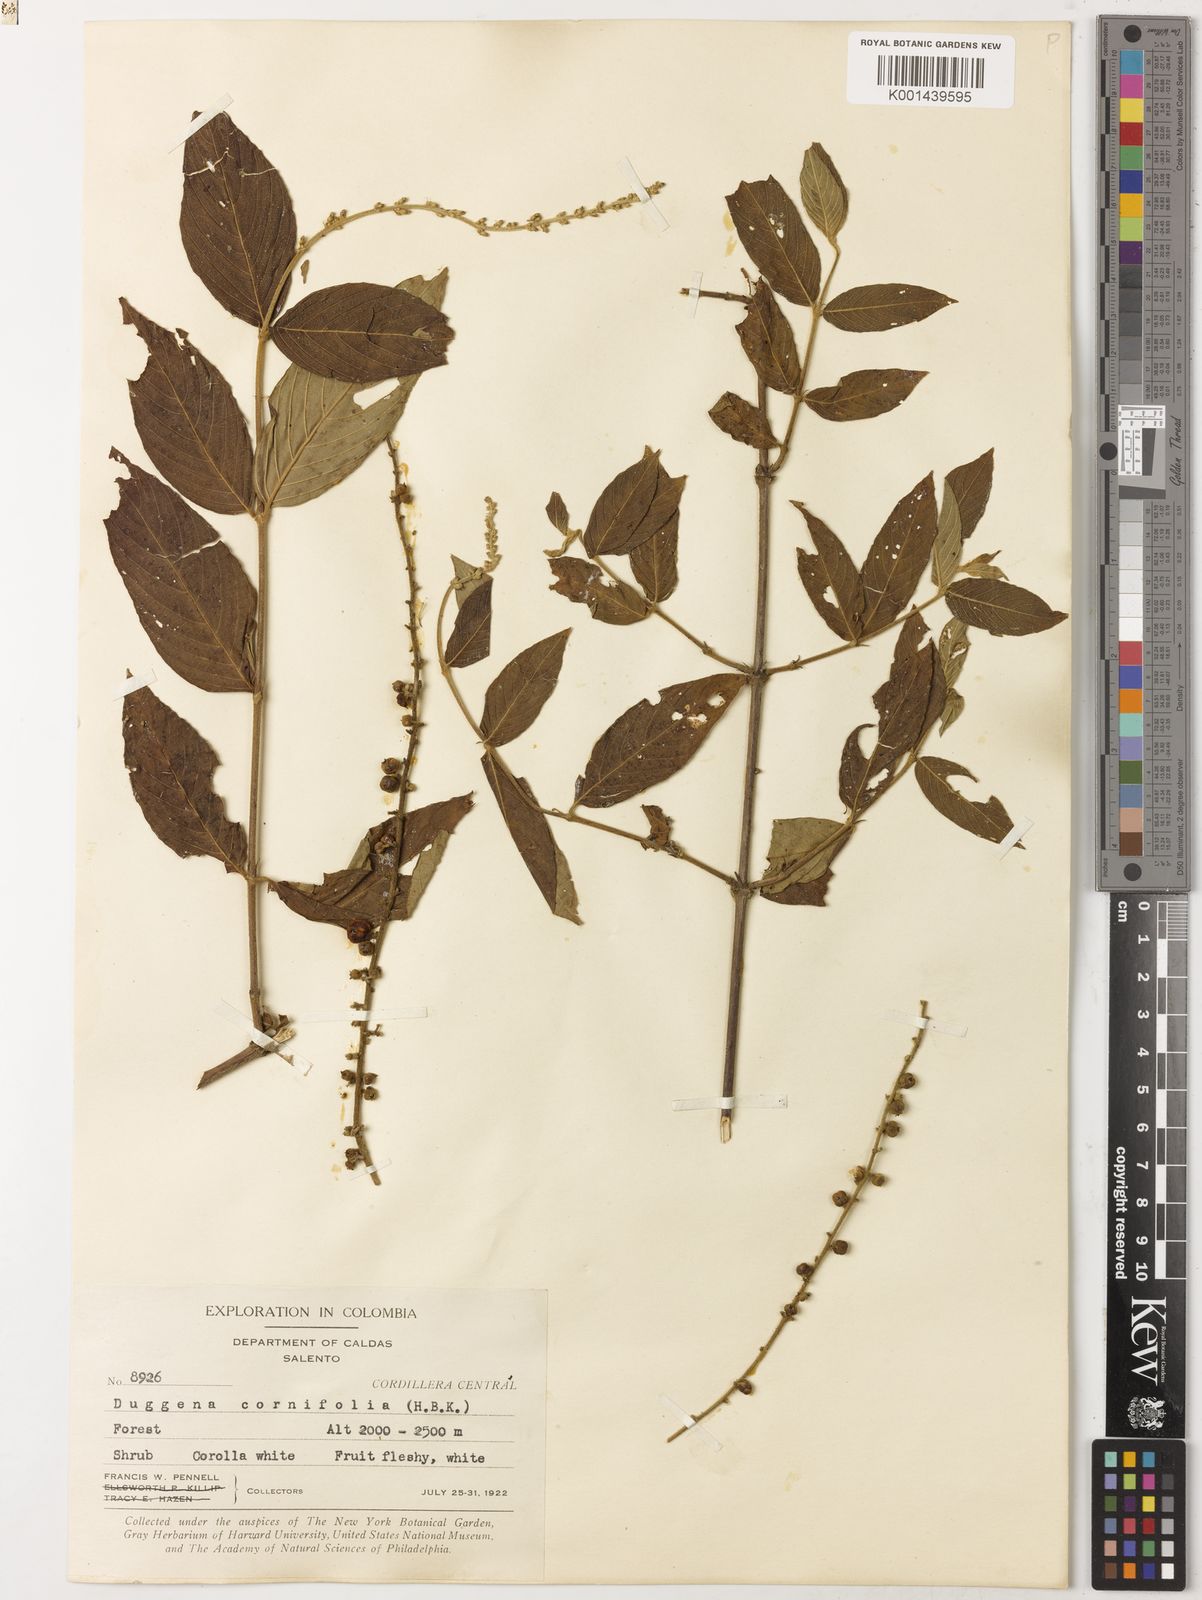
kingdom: Plantae
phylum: Tracheophyta
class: Magnoliopsida
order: Gentianales
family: Rubiaceae
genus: Gonzalagunia
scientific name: Gonzalagunia cornifolia
